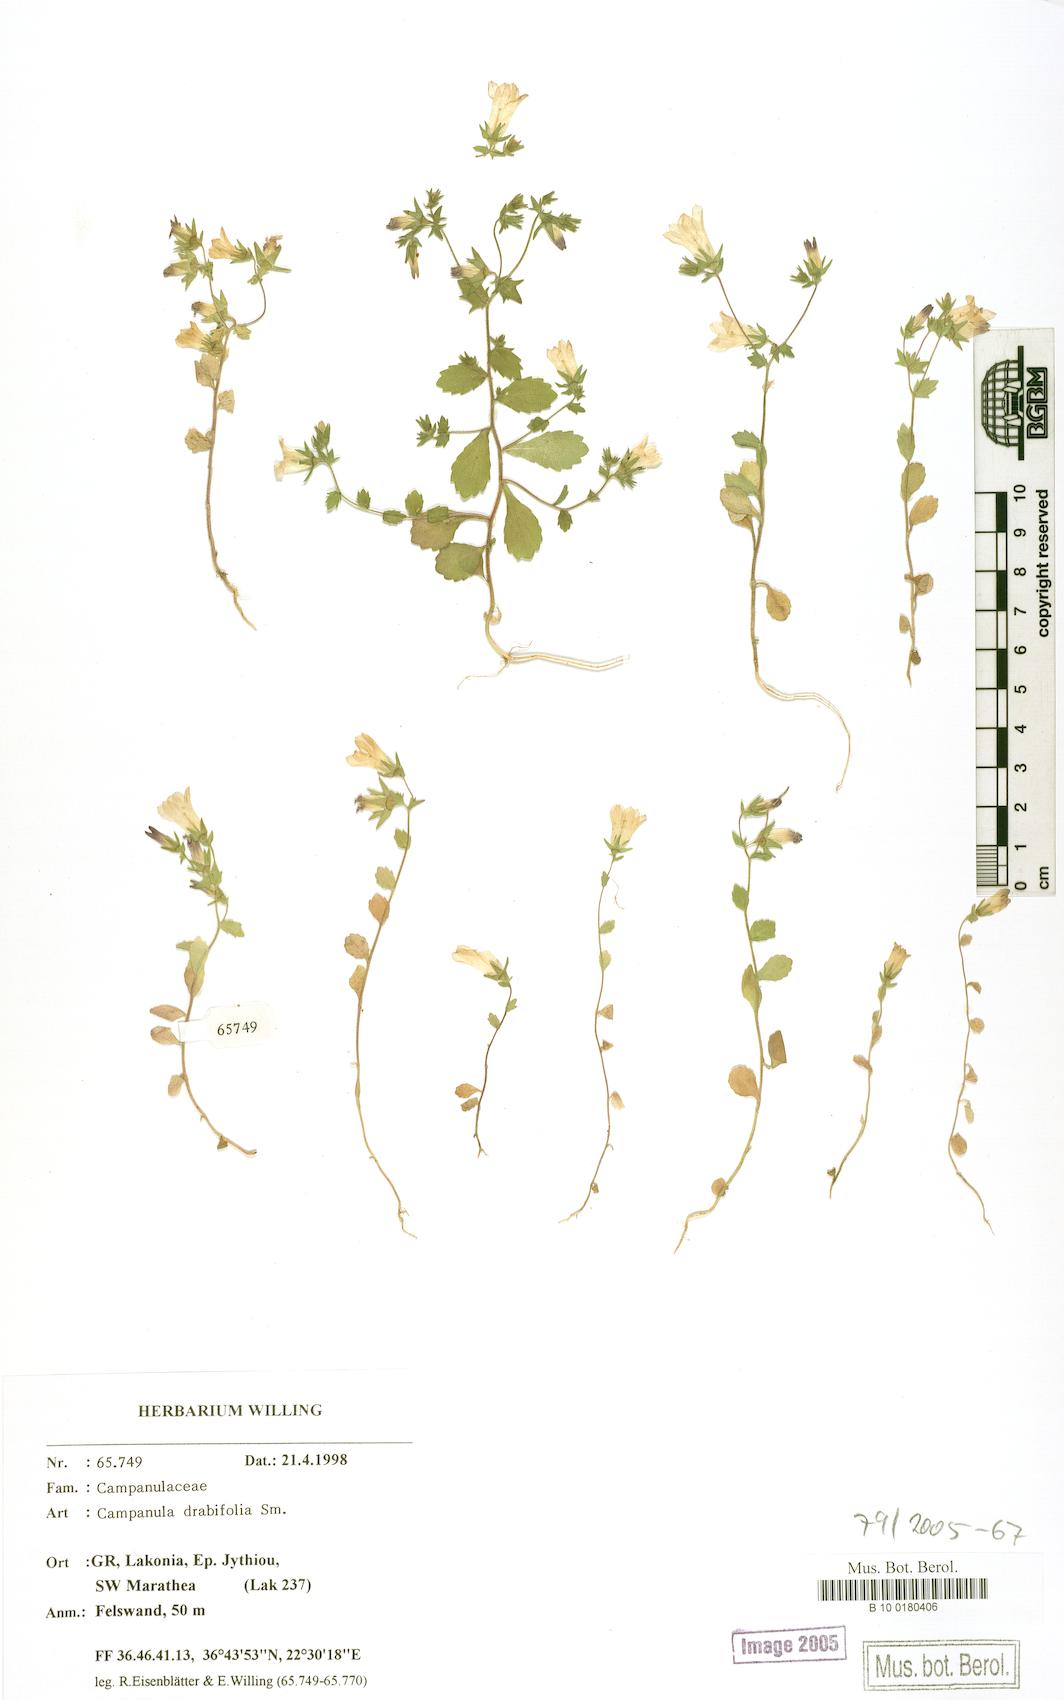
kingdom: Plantae
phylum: Tracheophyta
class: Magnoliopsida
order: Asterales
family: Campanulaceae
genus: Campanula
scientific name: Campanula drabifolia
